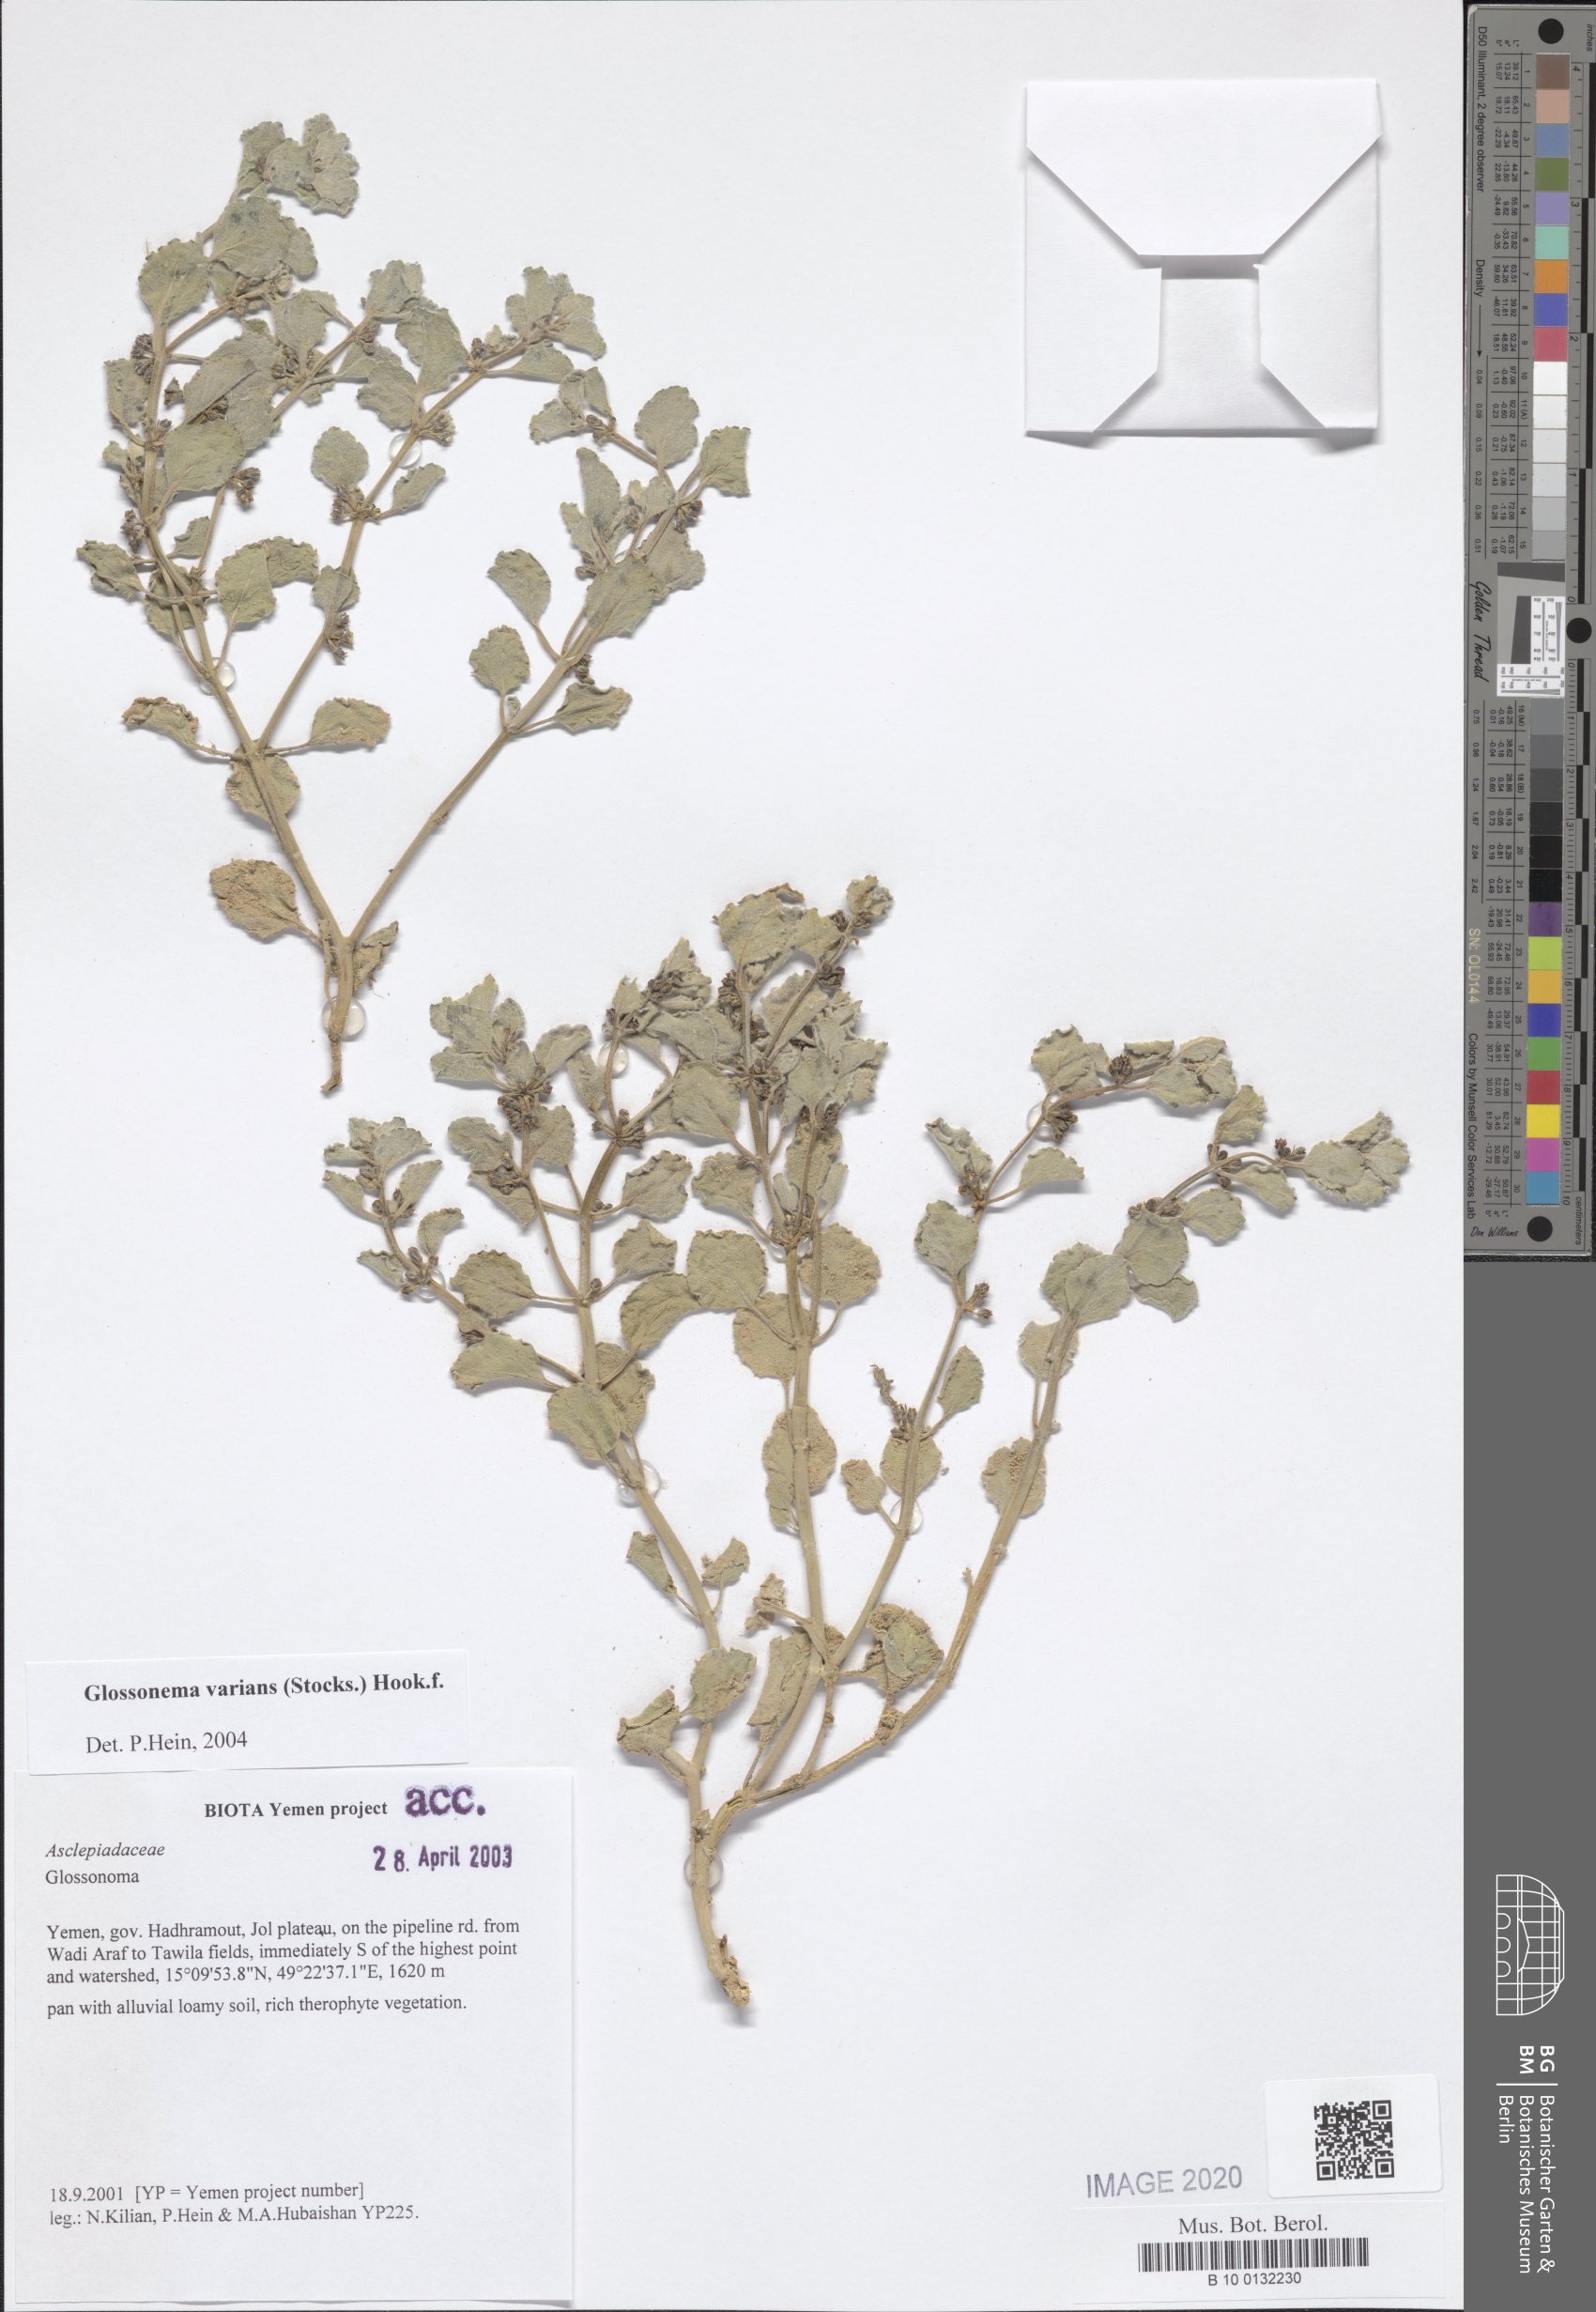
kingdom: Plantae
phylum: Tracheophyta
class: Magnoliopsida
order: Gentianales
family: Apocynaceae
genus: Cynanchum
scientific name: Cynanchum varians
